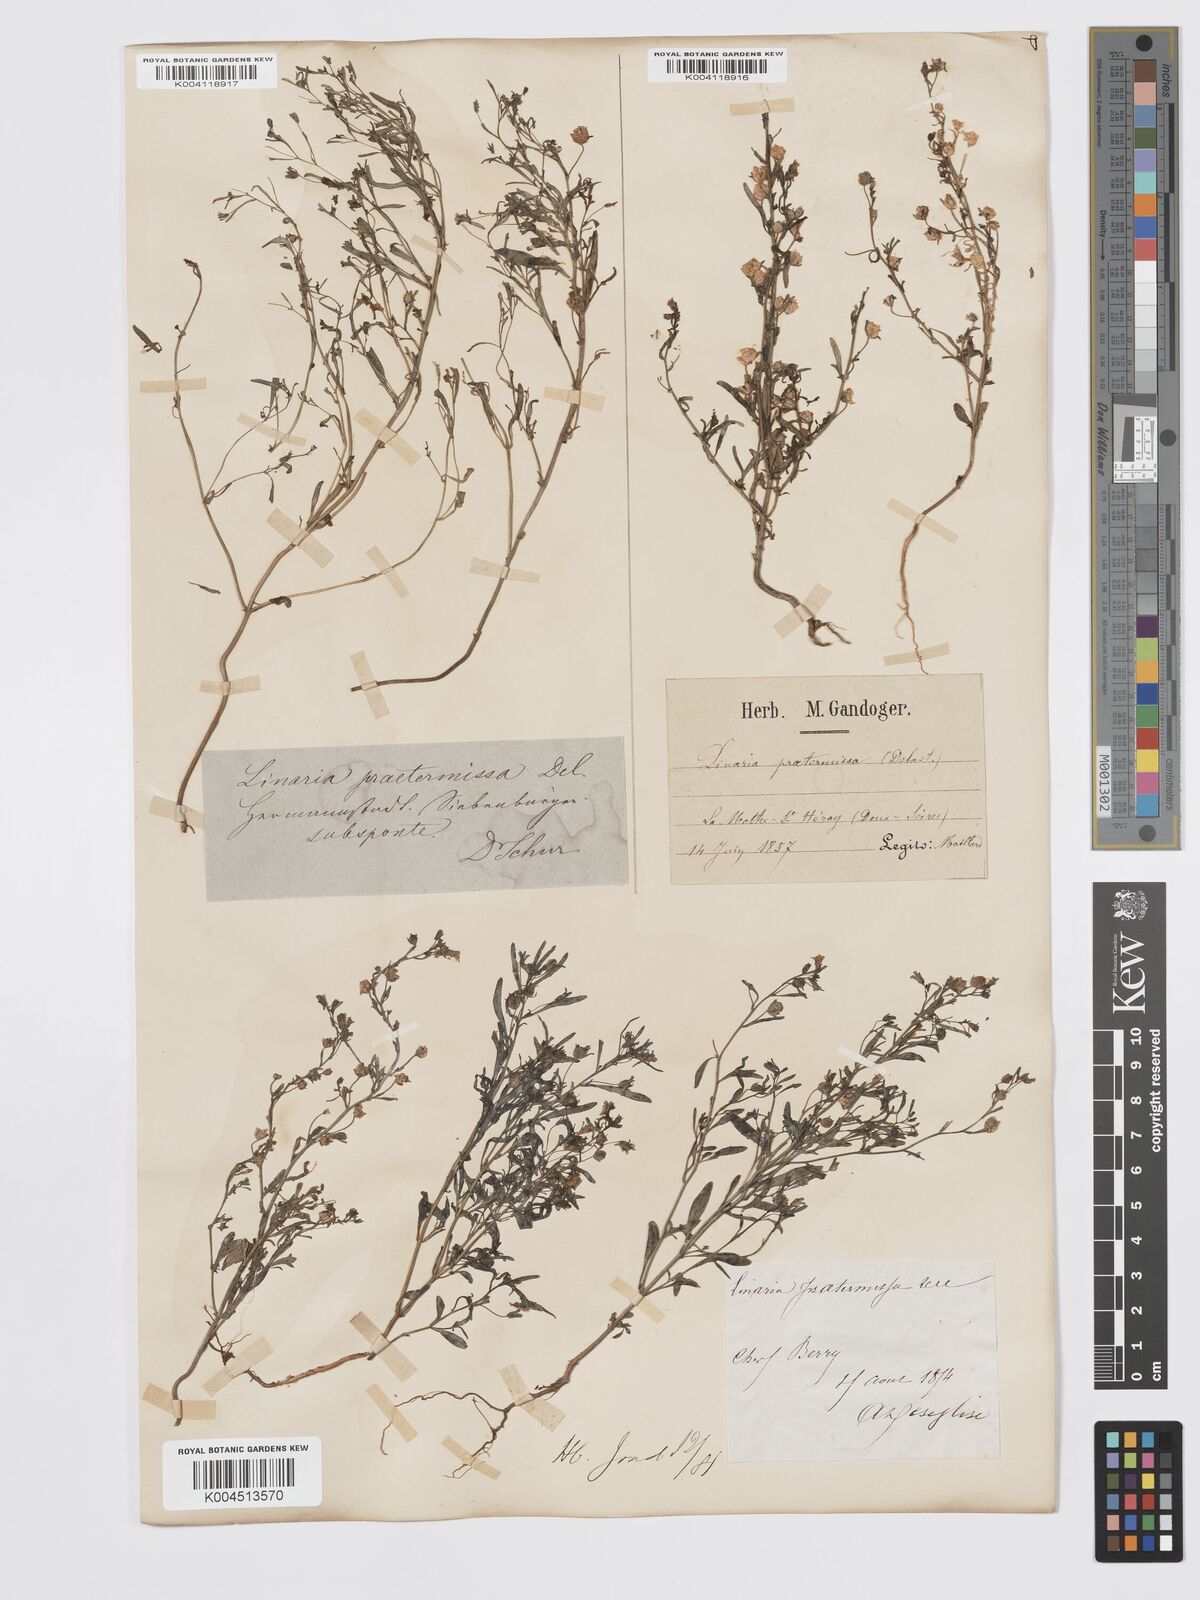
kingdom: Plantae
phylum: Tracheophyta
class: Magnoliopsida
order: Lamiales
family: Plantaginaceae
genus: Chaenorhinum
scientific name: Chaenorhinum minus
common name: Dwarf snapdragon
